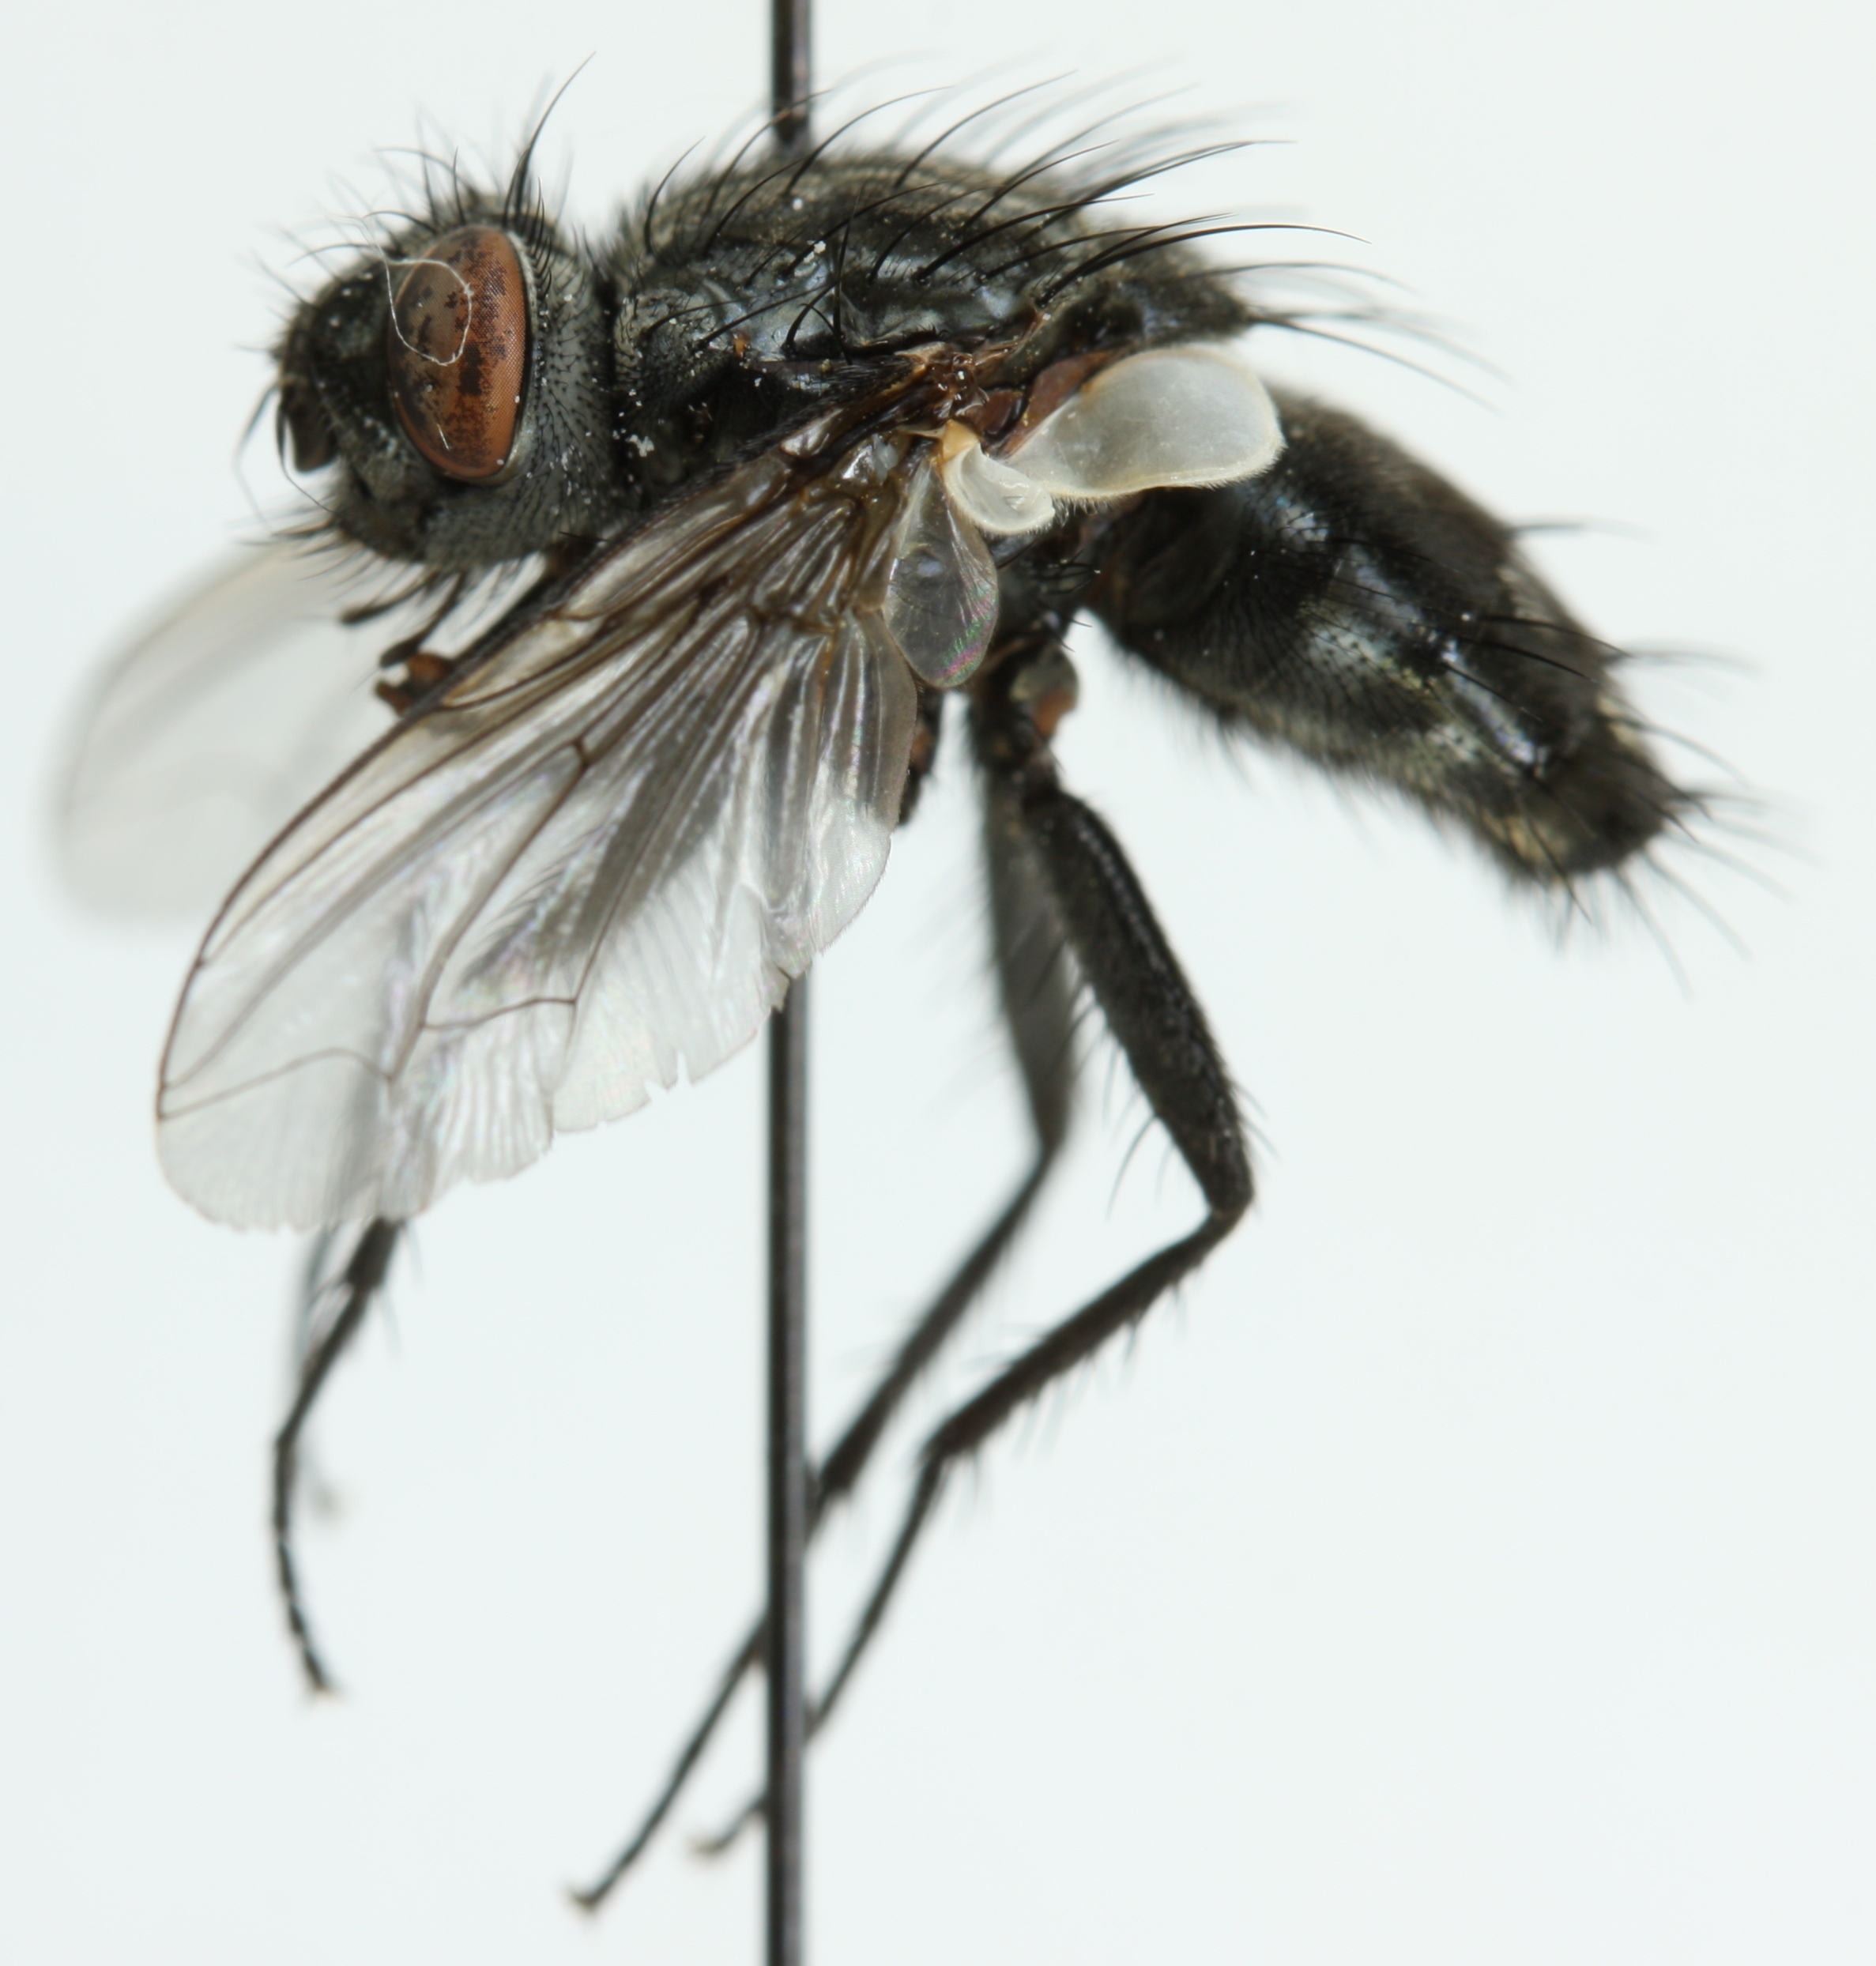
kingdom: Animalia
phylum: Arthropoda
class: Insecta
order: Diptera
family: Sarcophagidae
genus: Brachicoma
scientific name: Brachicoma devia
